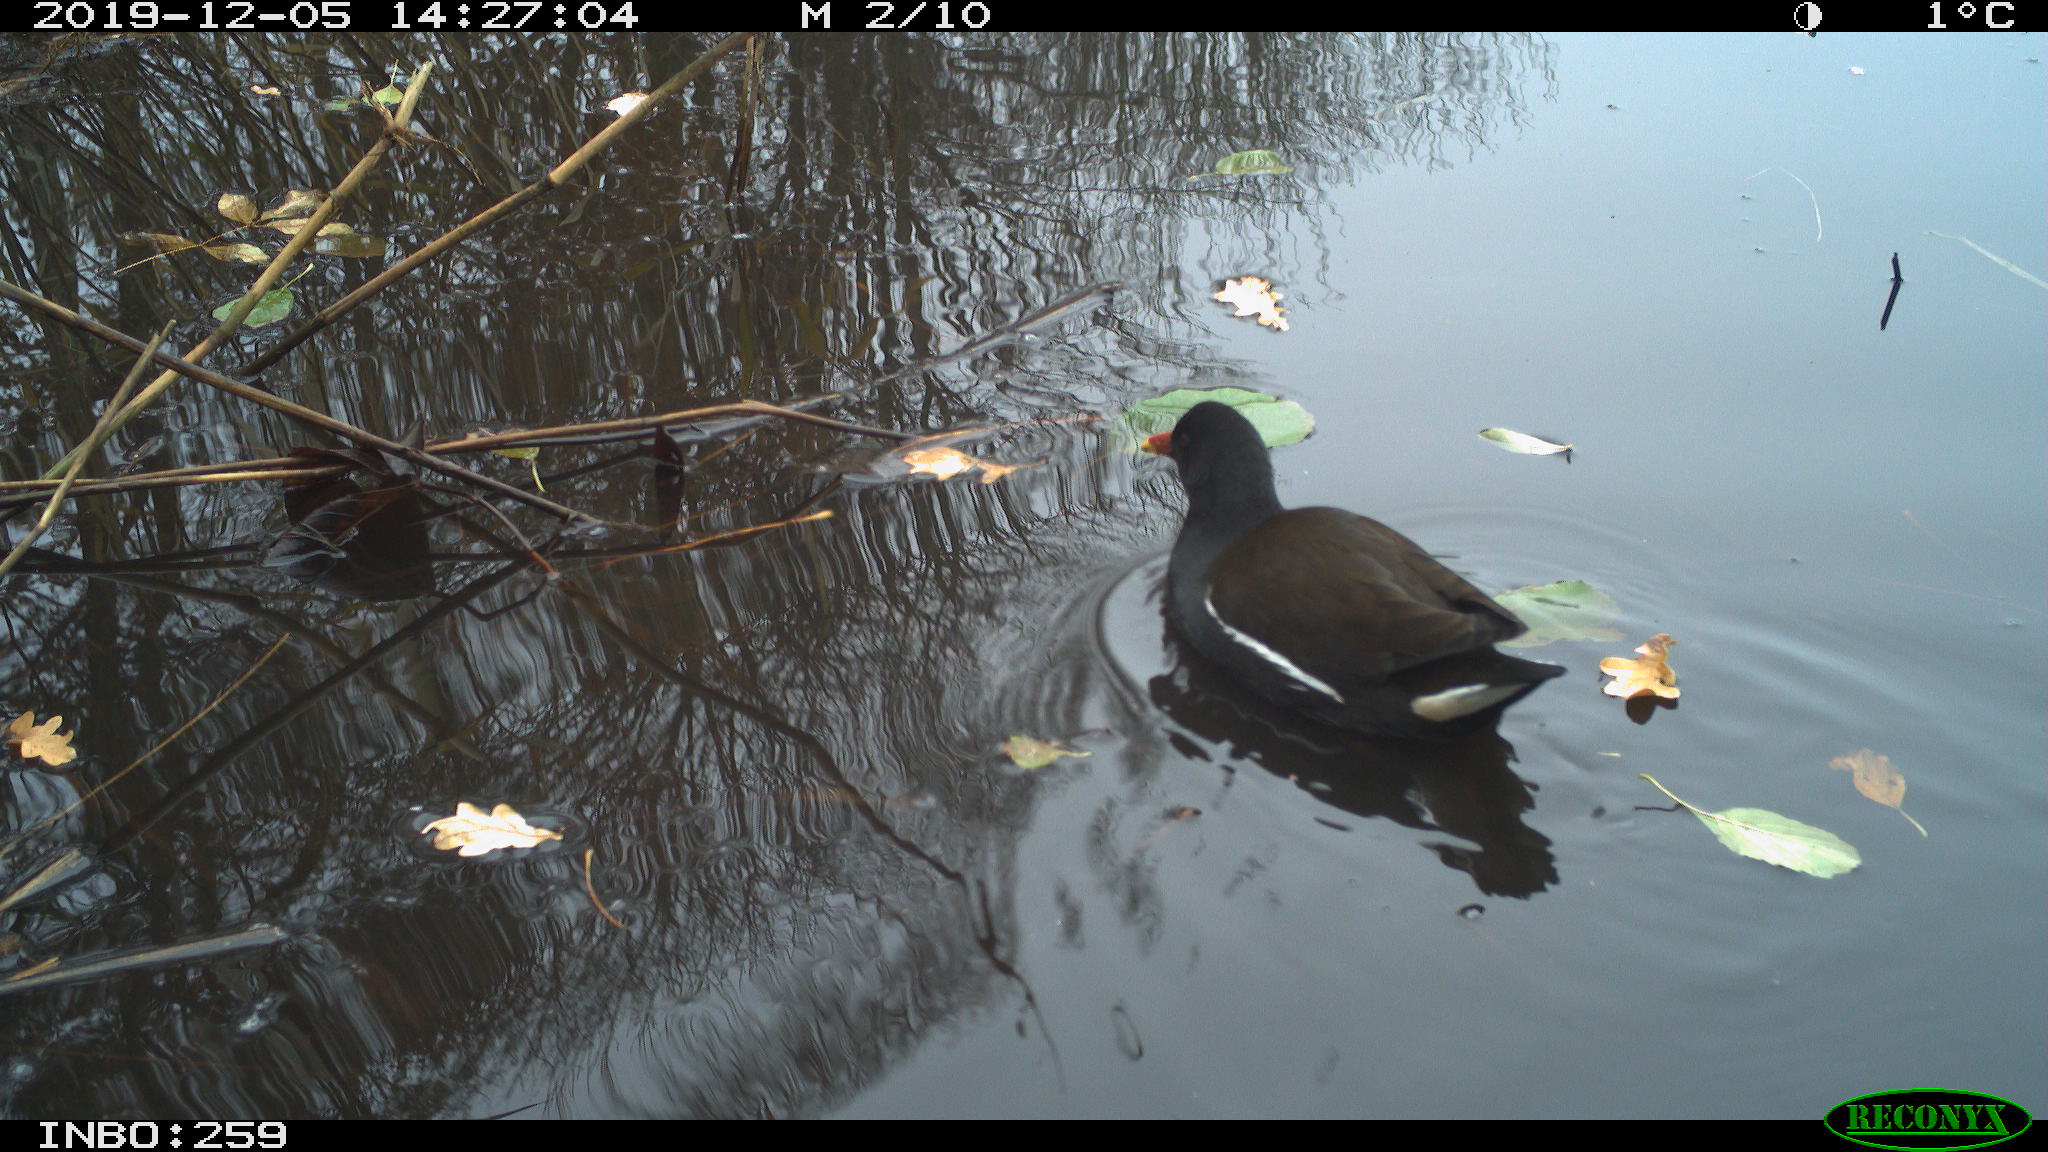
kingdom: Animalia
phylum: Chordata
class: Aves
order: Gruiformes
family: Rallidae
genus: Gallinula
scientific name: Gallinula chloropus
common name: Common moorhen
